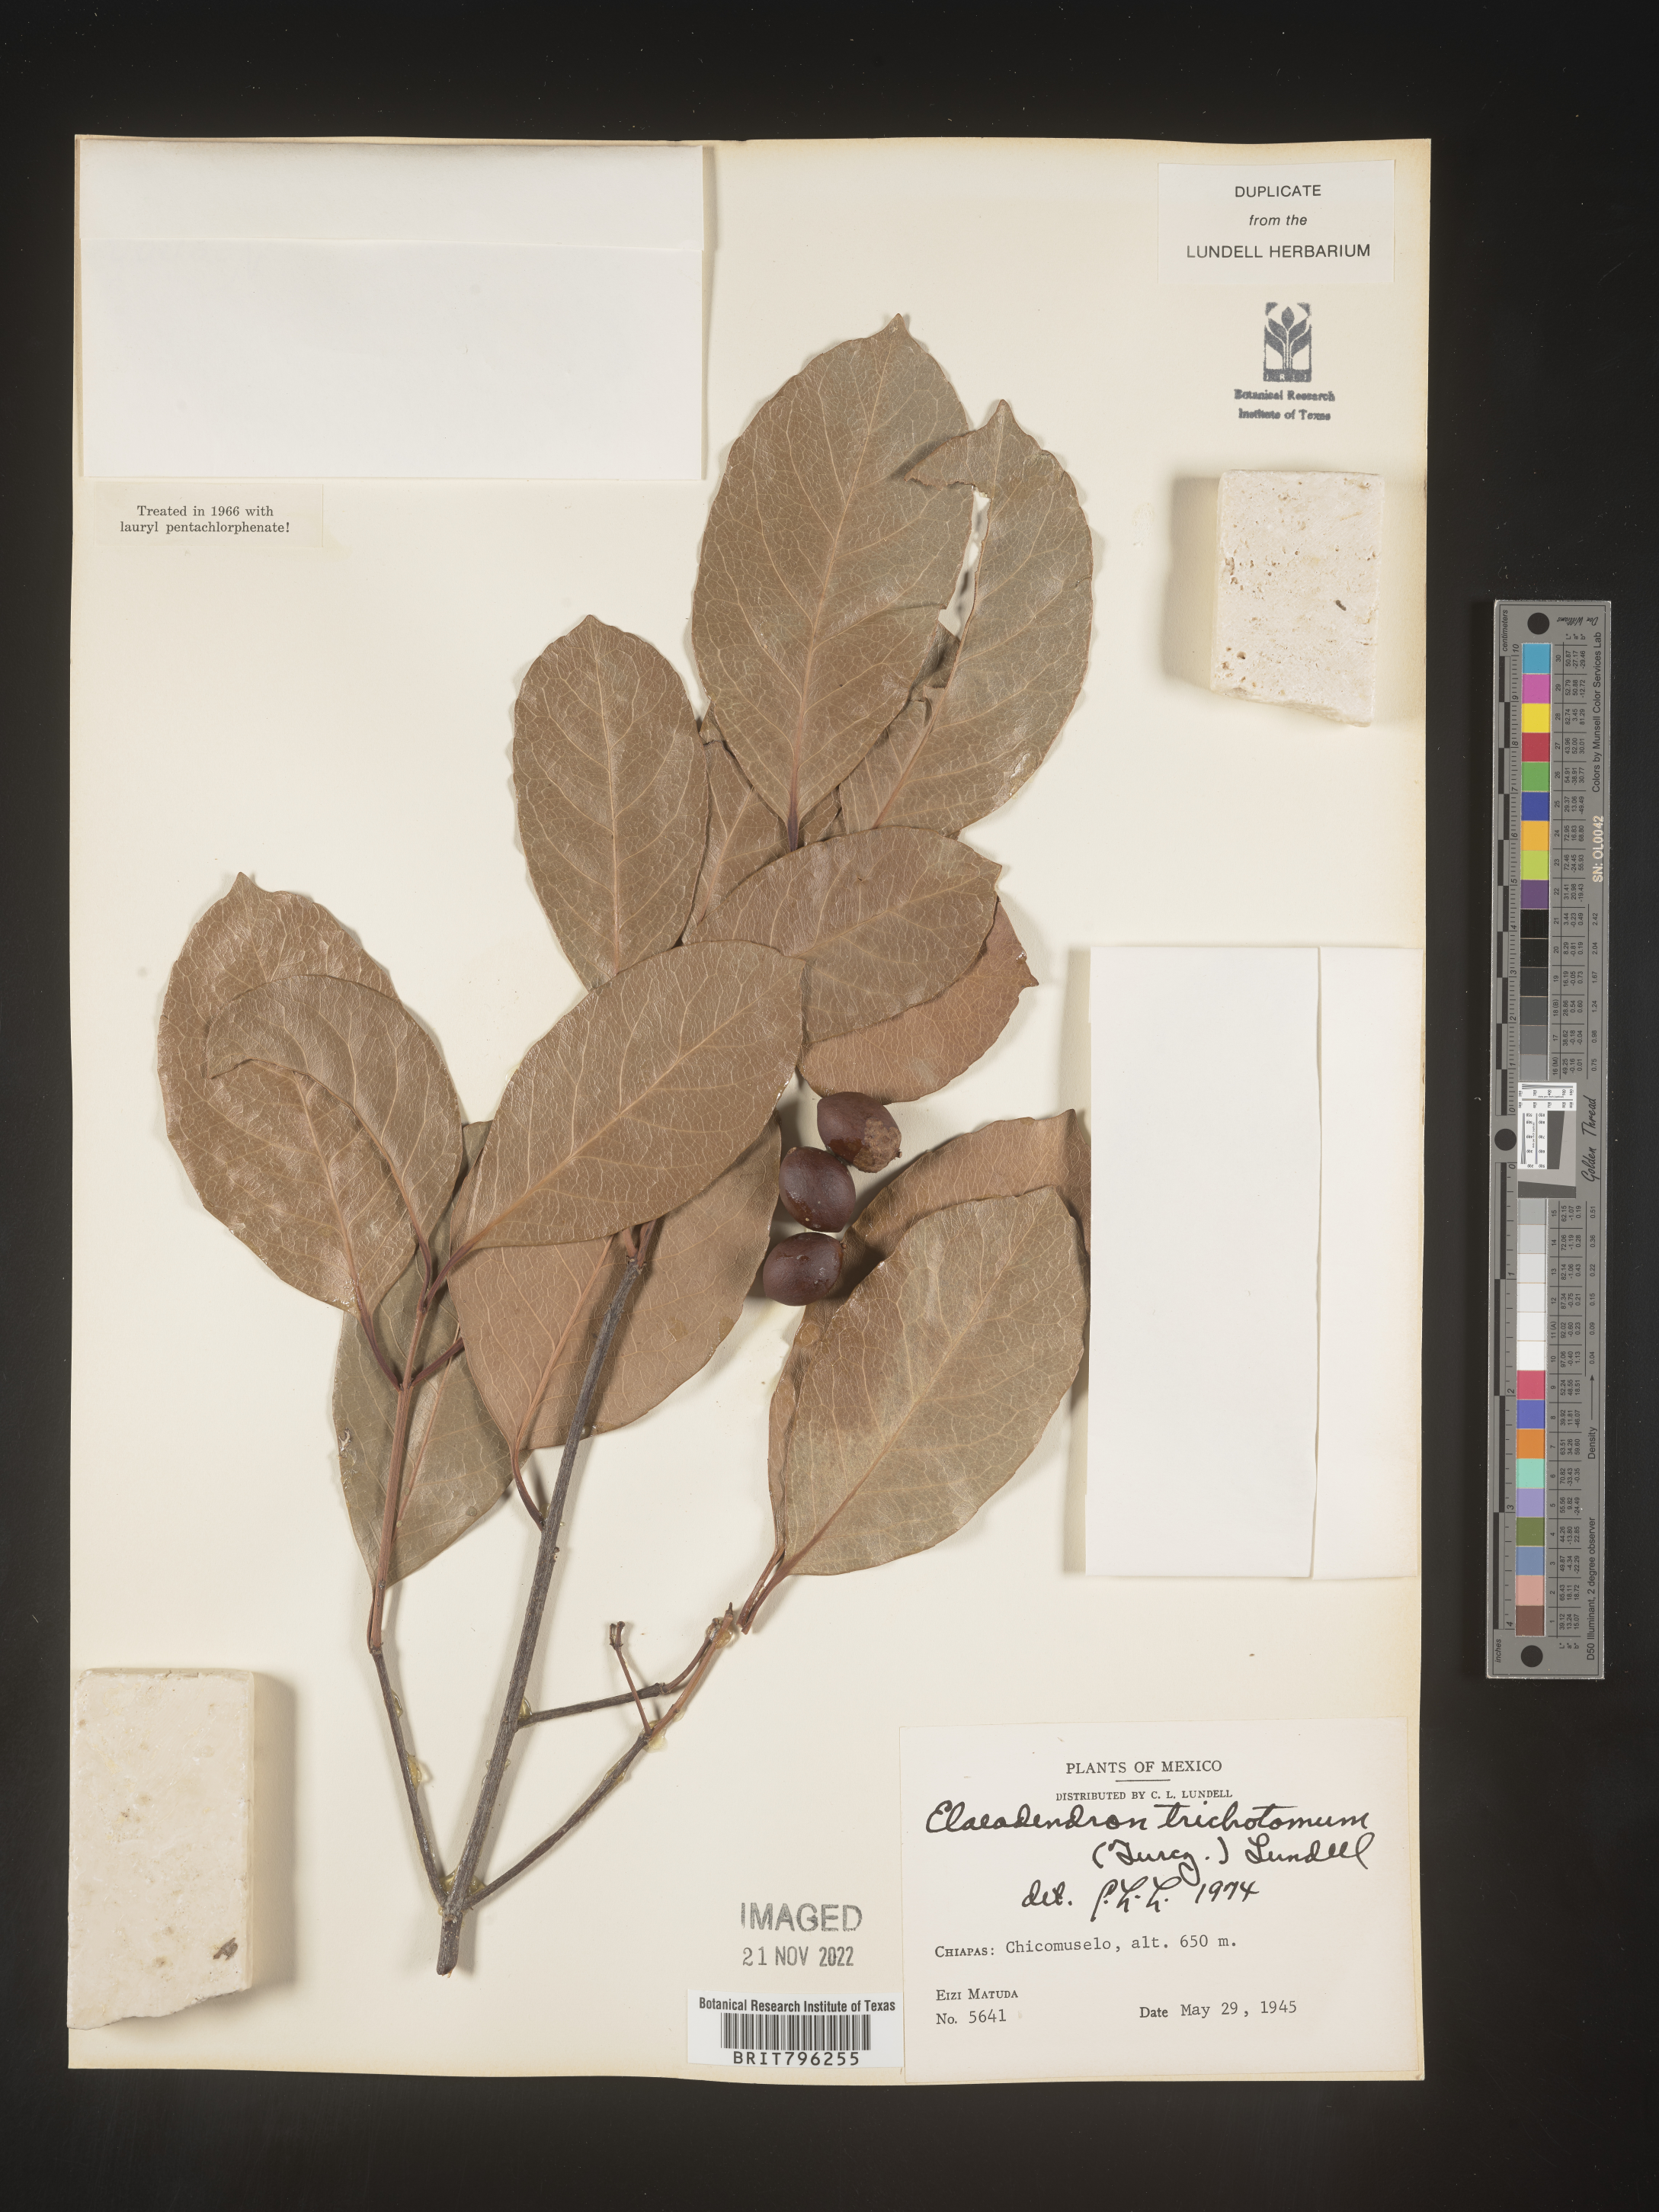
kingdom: Plantae
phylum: Tracheophyta
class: Magnoliopsida
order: Celastrales
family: Celastraceae
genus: Elaeodendron
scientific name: Elaeodendron
